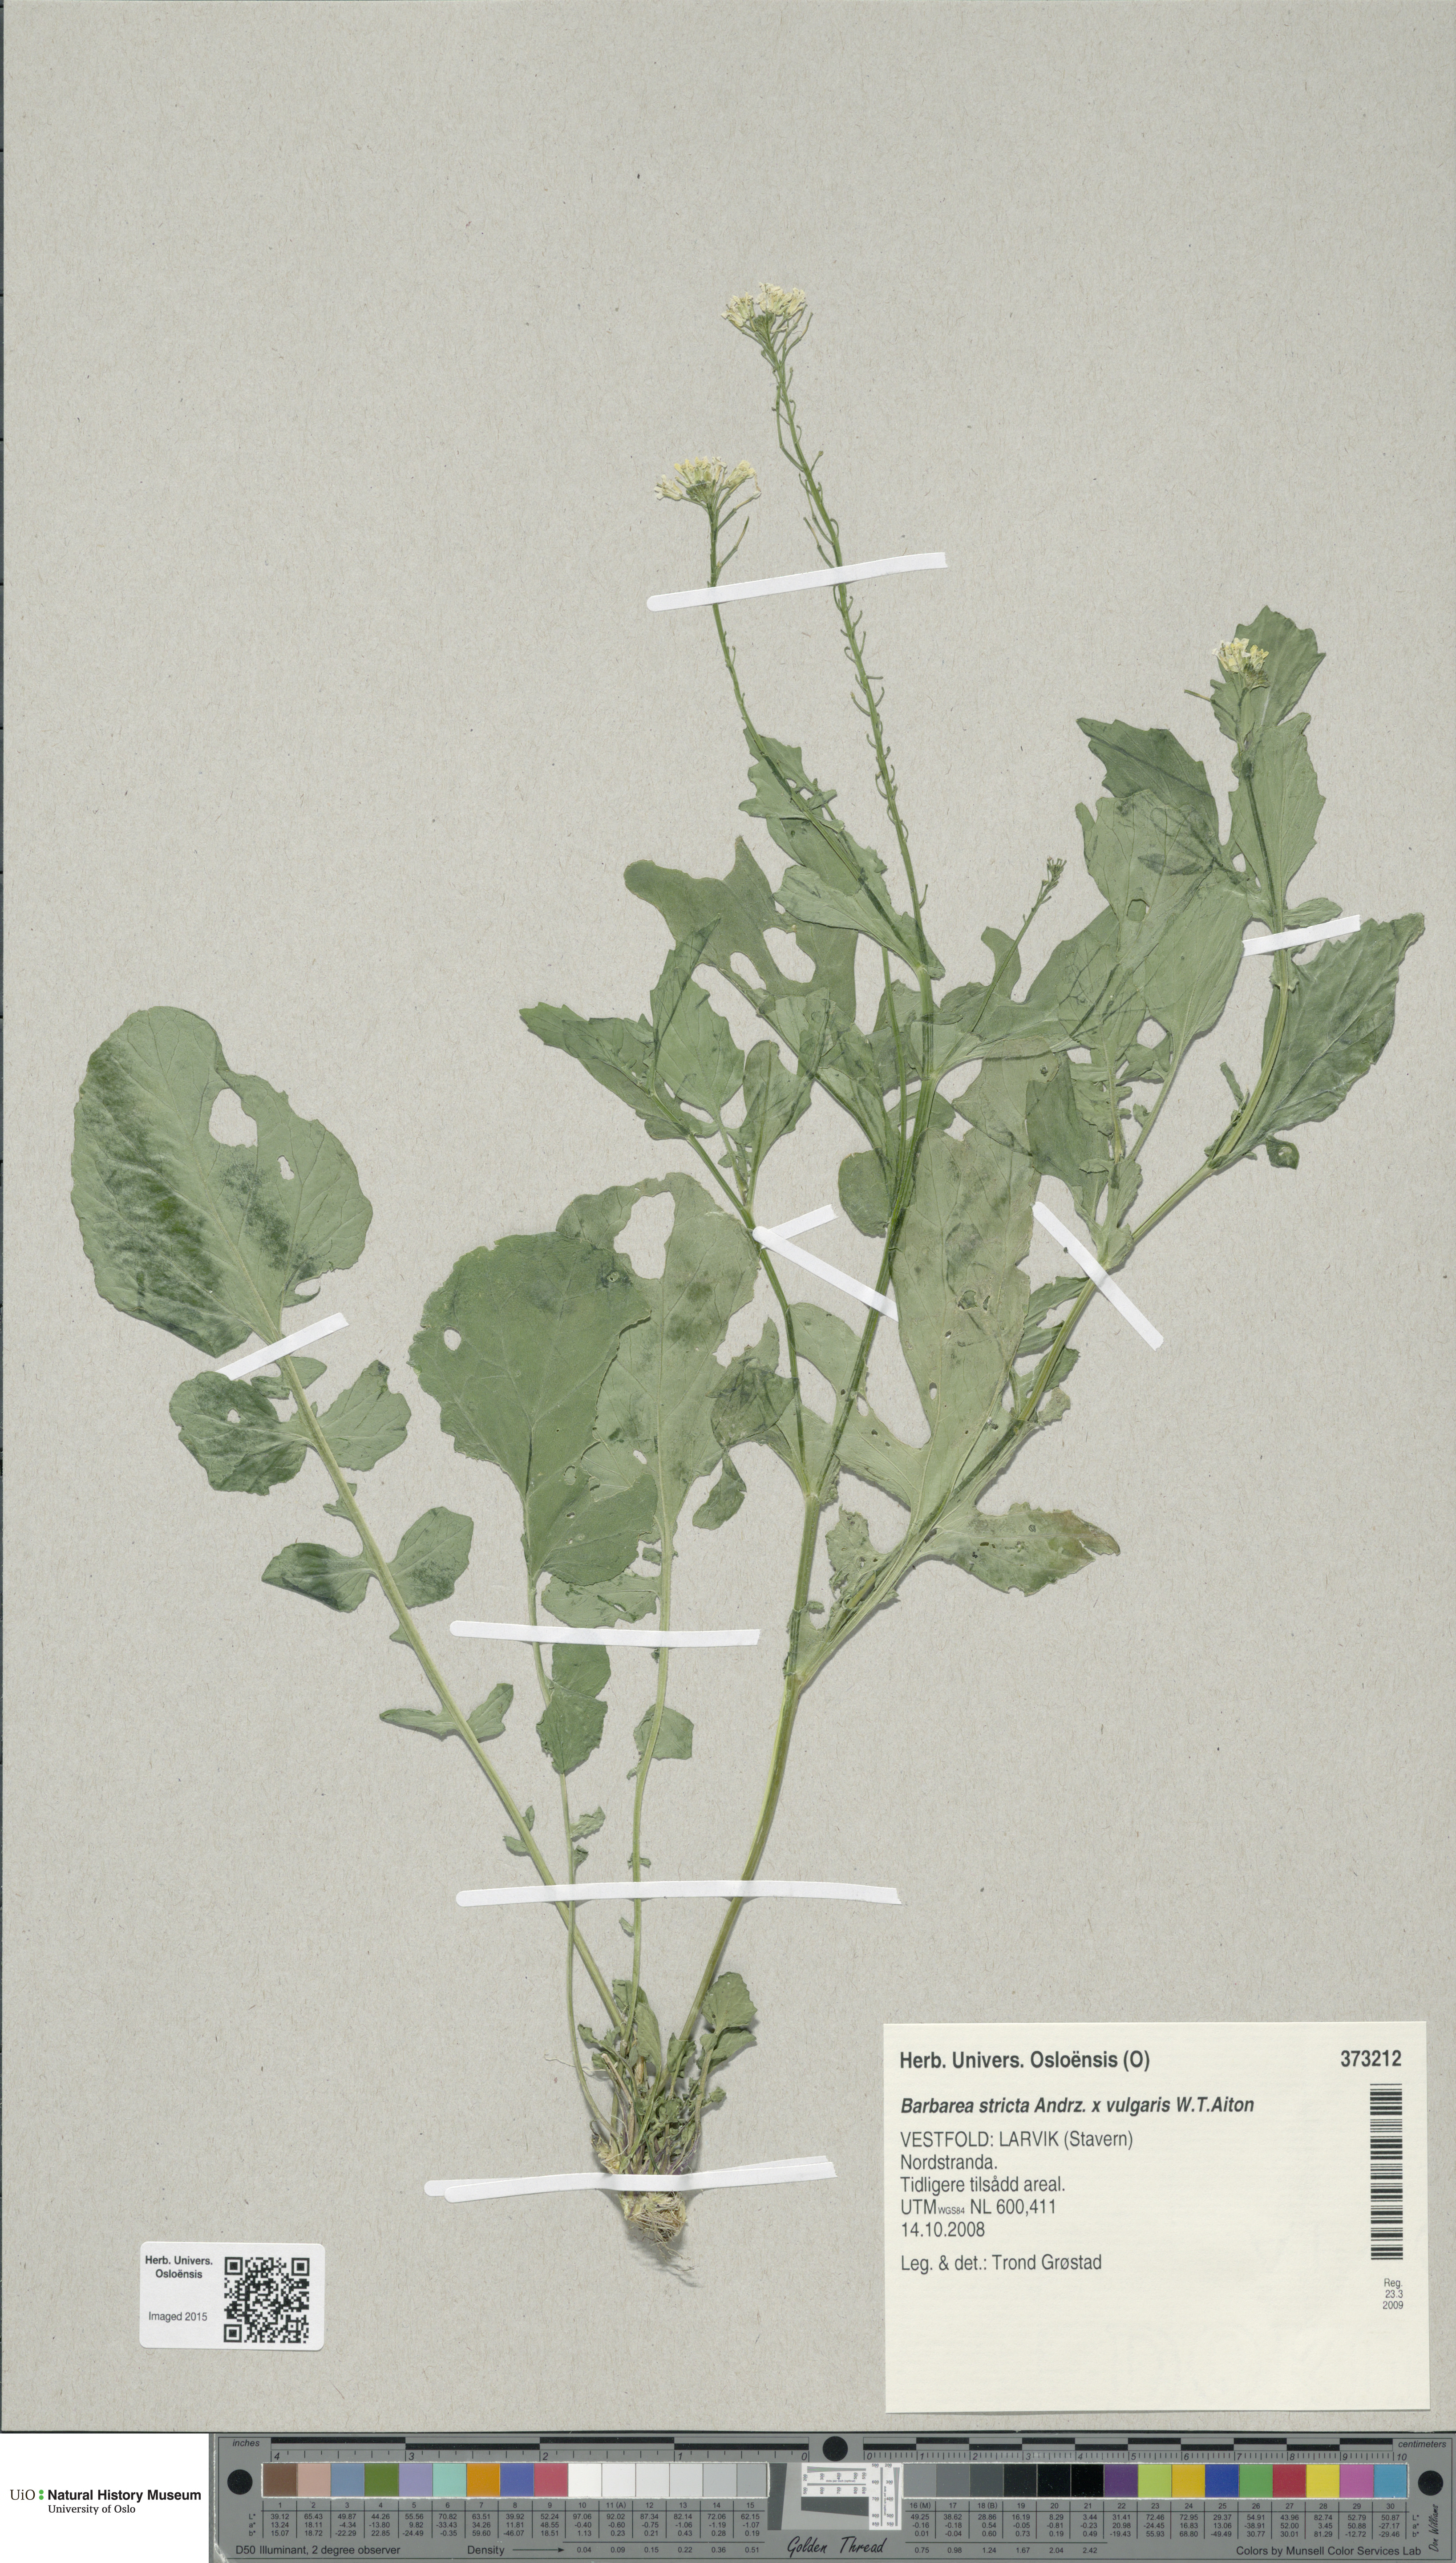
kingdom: Plantae
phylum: Tracheophyta
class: Magnoliopsida
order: Brassicales
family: Brassicaceae
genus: Barbarea
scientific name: Barbarea
